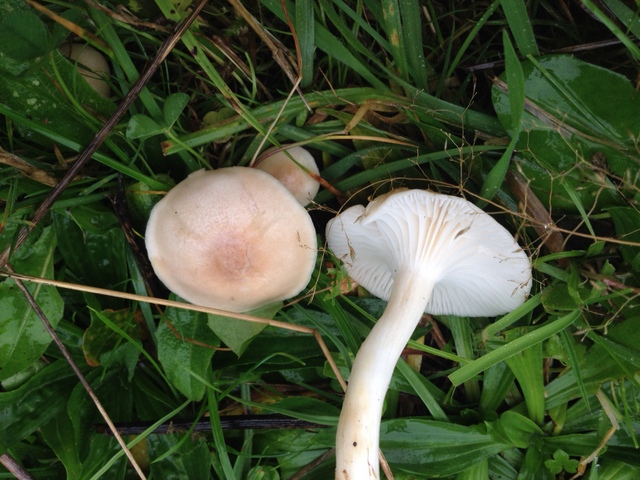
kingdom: Fungi
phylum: Basidiomycota
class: Agaricomycetes
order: Agaricales
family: Hygrophoraceae
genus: Cuphophyllus
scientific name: Cuphophyllus
